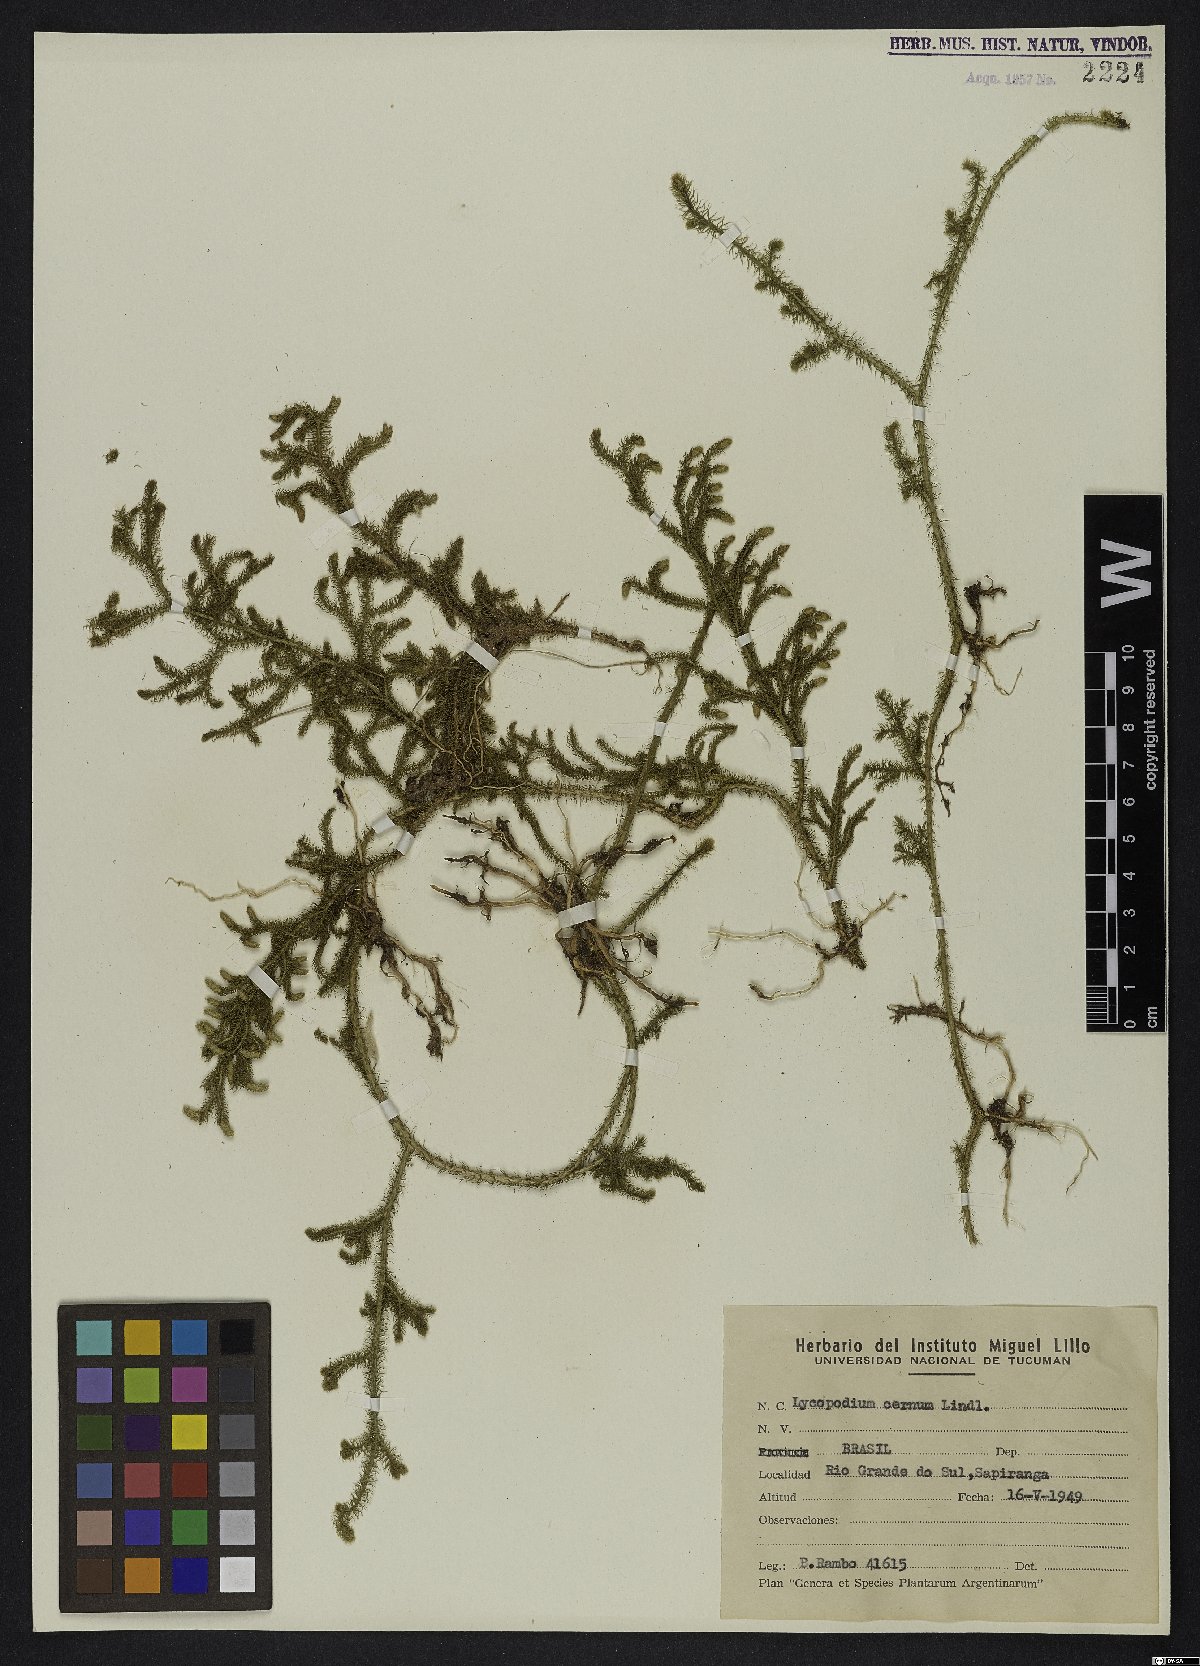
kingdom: Plantae
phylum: Tracheophyta
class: Lycopodiopsida
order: Lycopodiales
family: Lycopodiaceae
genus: Palhinhaea
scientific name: Palhinhaea cernua
